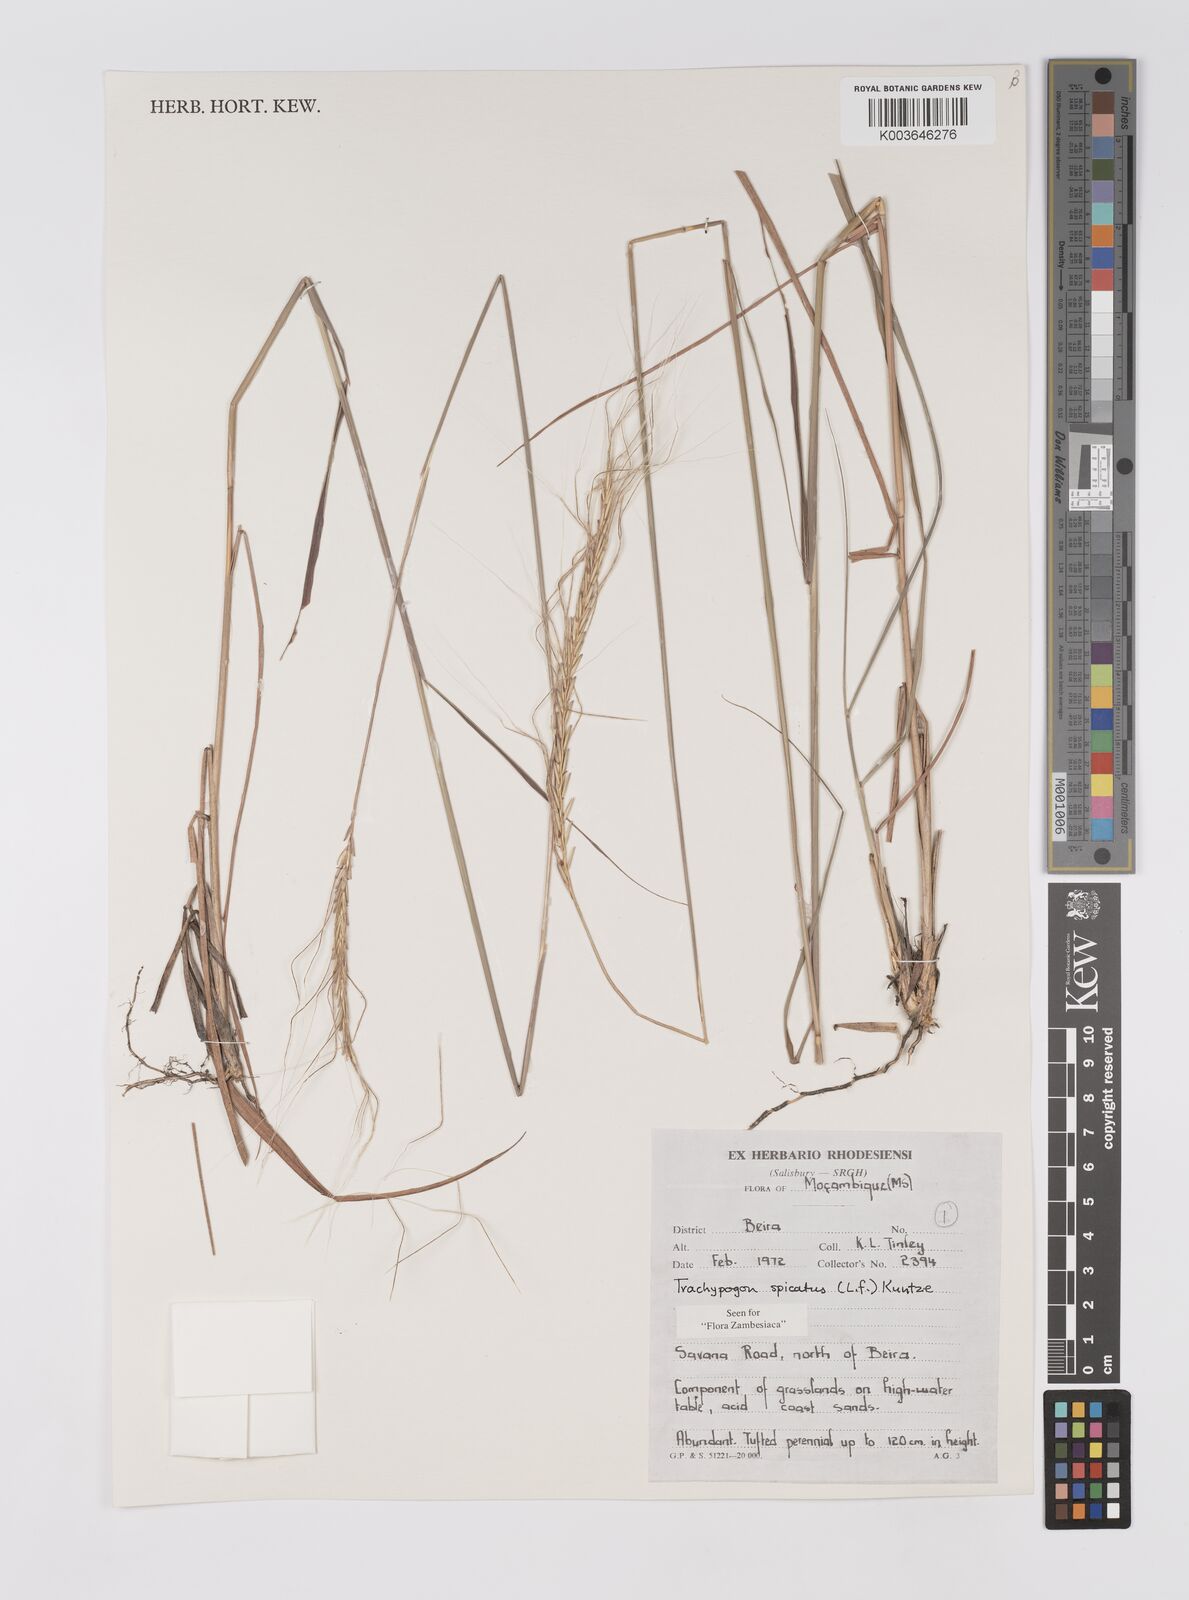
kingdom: Plantae
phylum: Tracheophyta
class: Liliopsida
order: Poales
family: Poaceae
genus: Trachypogon
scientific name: Trachypogon spicatus
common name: Crinkle-awn
